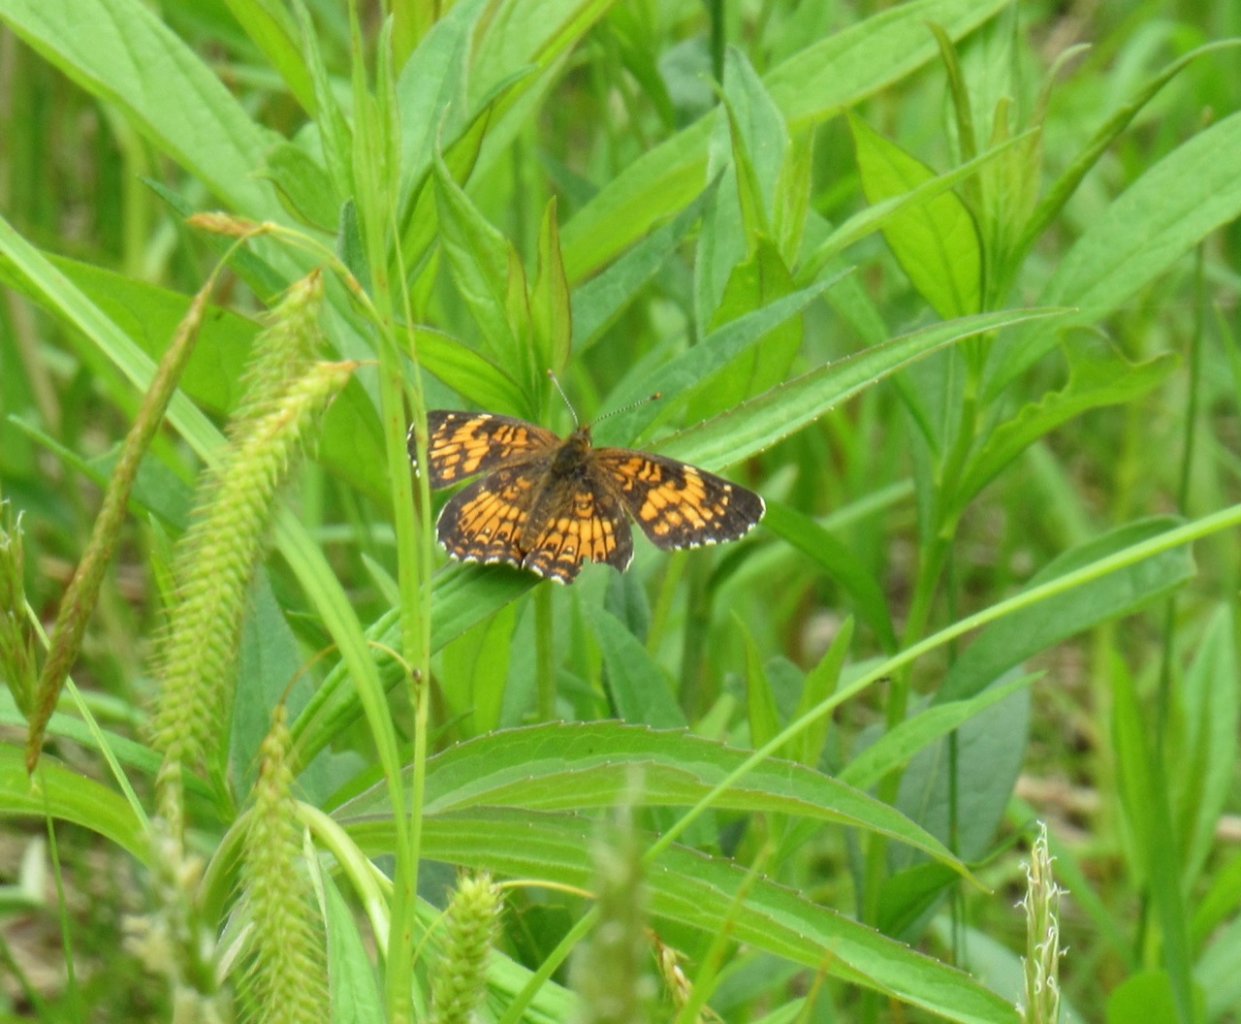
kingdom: Animalia
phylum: Arthropoda
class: Insecta
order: Lepidoptera
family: Nymphalidae
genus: Chlosyne
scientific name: Chlosyne harrisii
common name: Harris's Checkerspot
